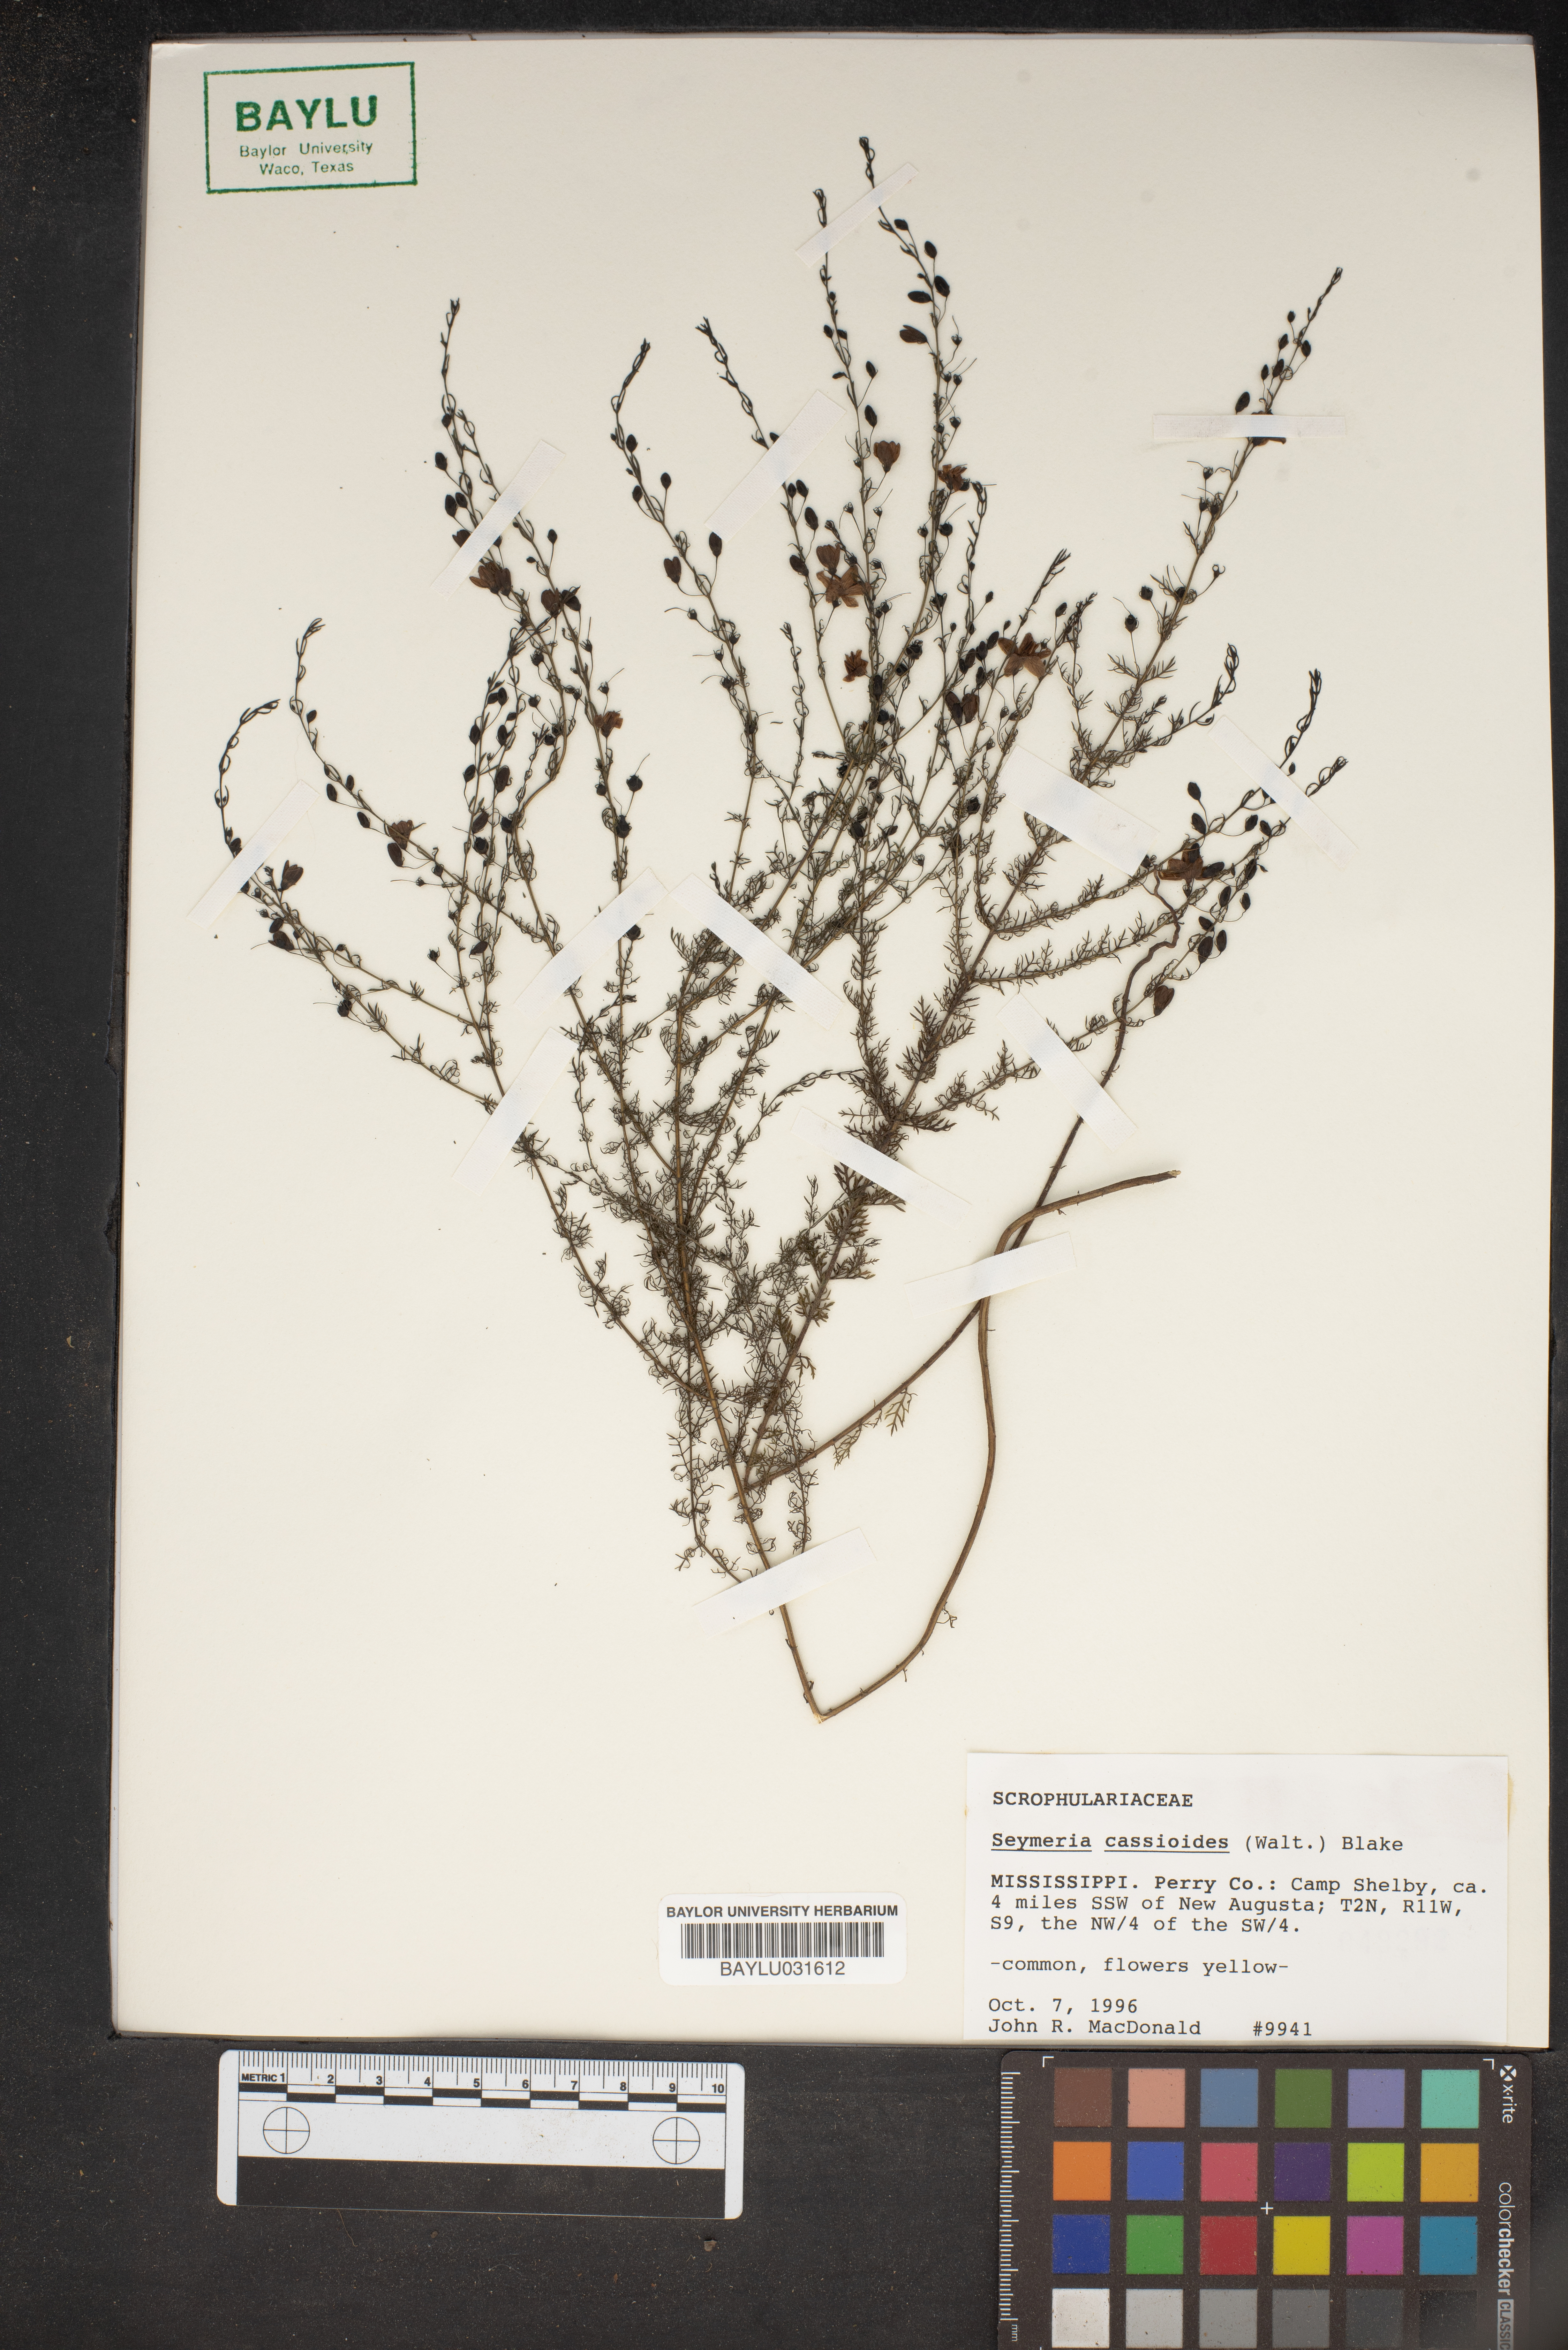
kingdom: Plantae
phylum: Tracheophyta
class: Magnoliopsida
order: Lamiales
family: Orobanchaceae
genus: Seymeria
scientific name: Seymeria cassioides
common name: Yaupon black-senna
